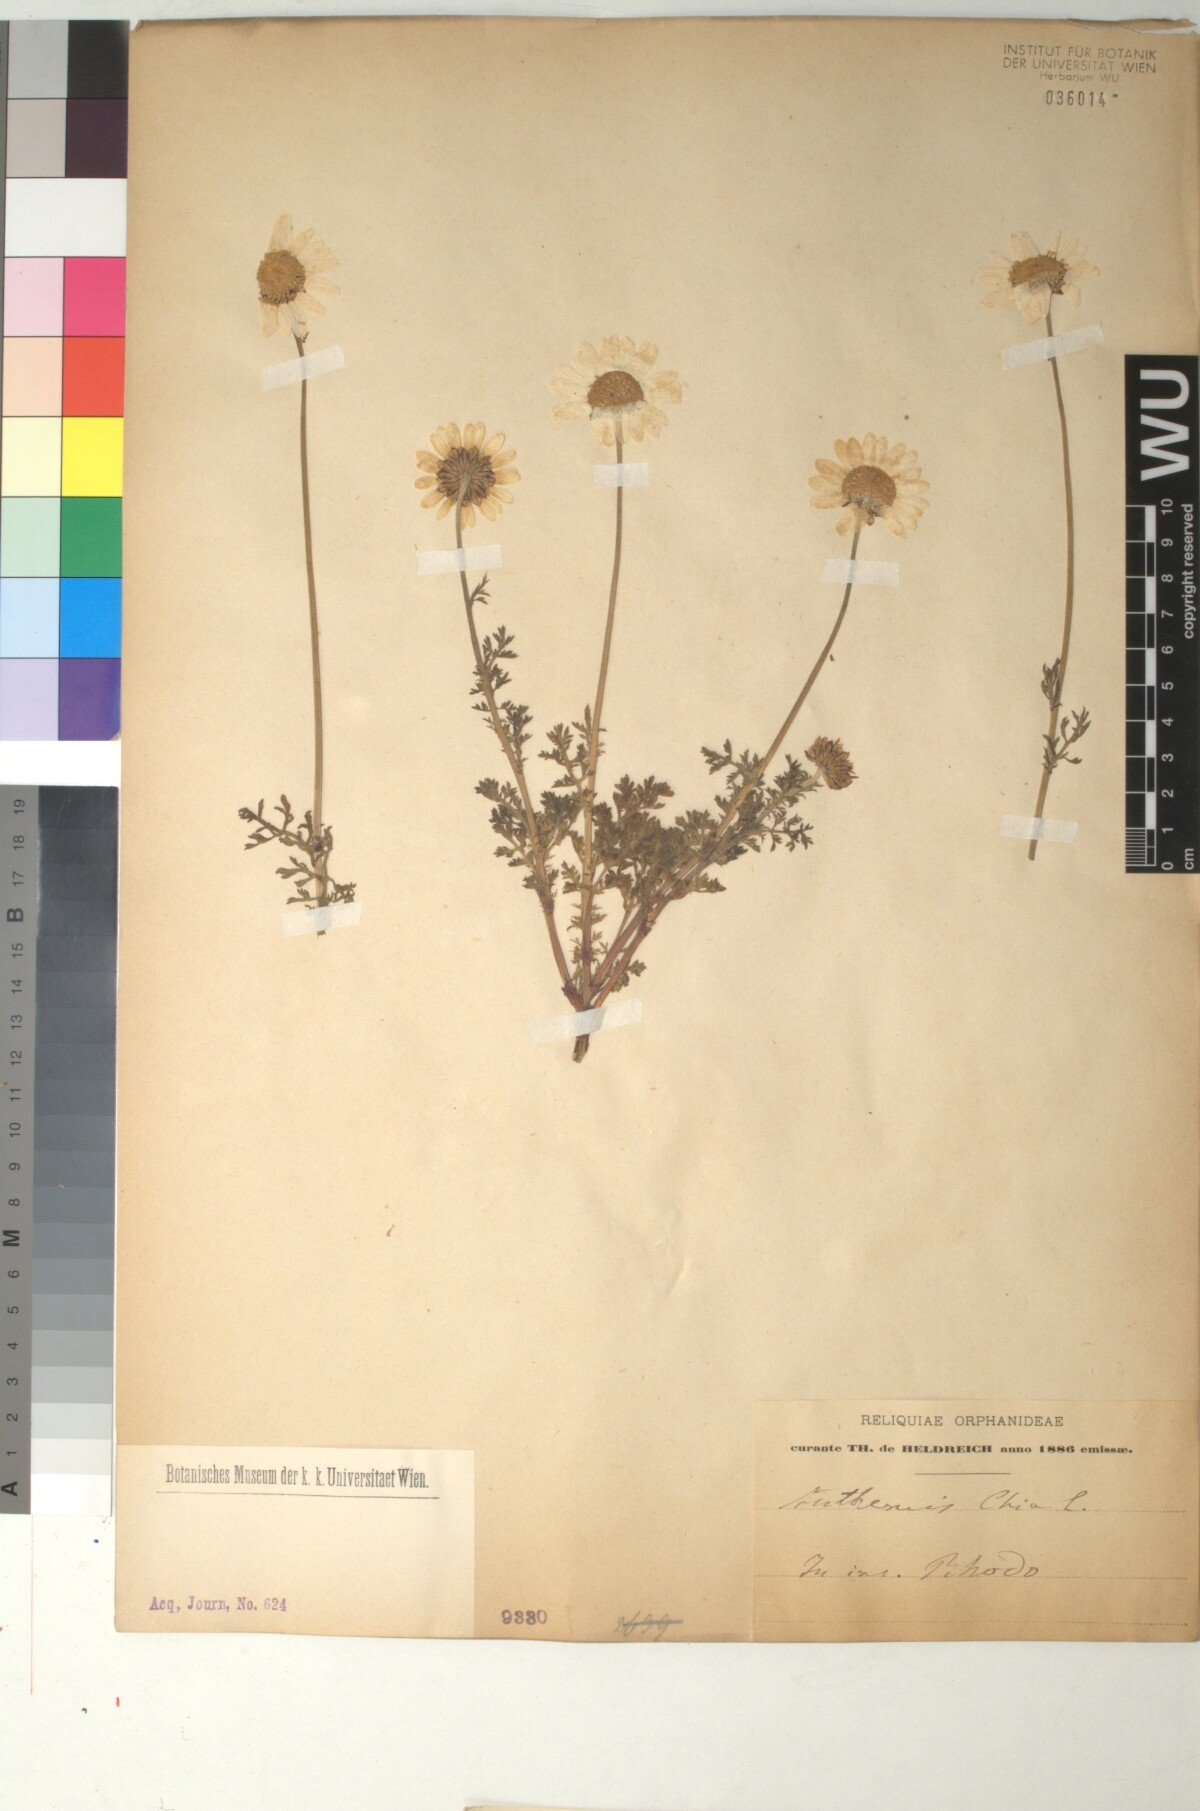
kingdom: Plantae
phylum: Tracheophyta
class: Magnoliopsida
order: Asterales
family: Asteraceae
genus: Anthemis
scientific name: Anthemis chia
